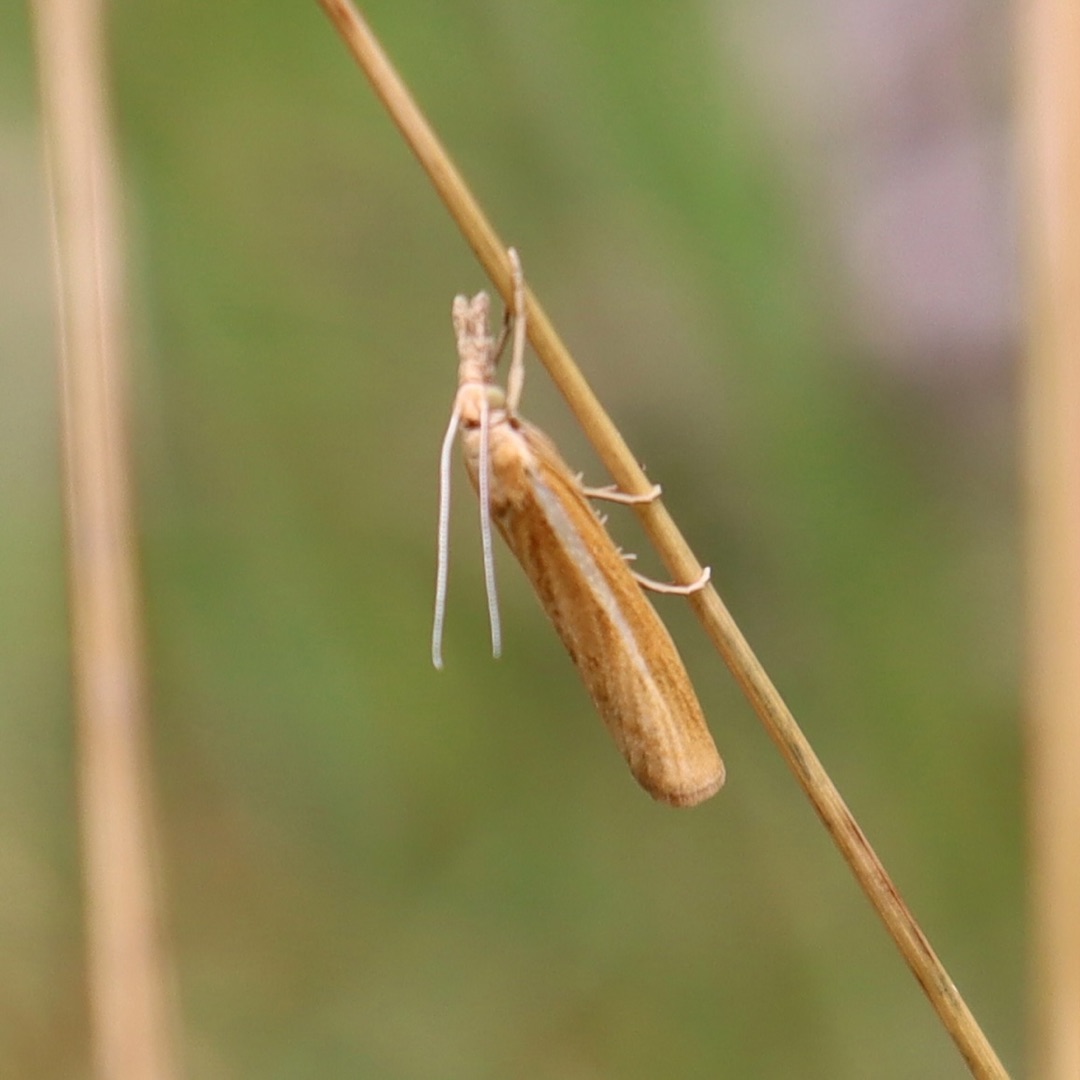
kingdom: Animalia
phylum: Arthropoda
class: Insecta
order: Lepidoptera
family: Crambidae
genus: Agriphila
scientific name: Agriphila tristellus
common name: Okkergult græsmøl
